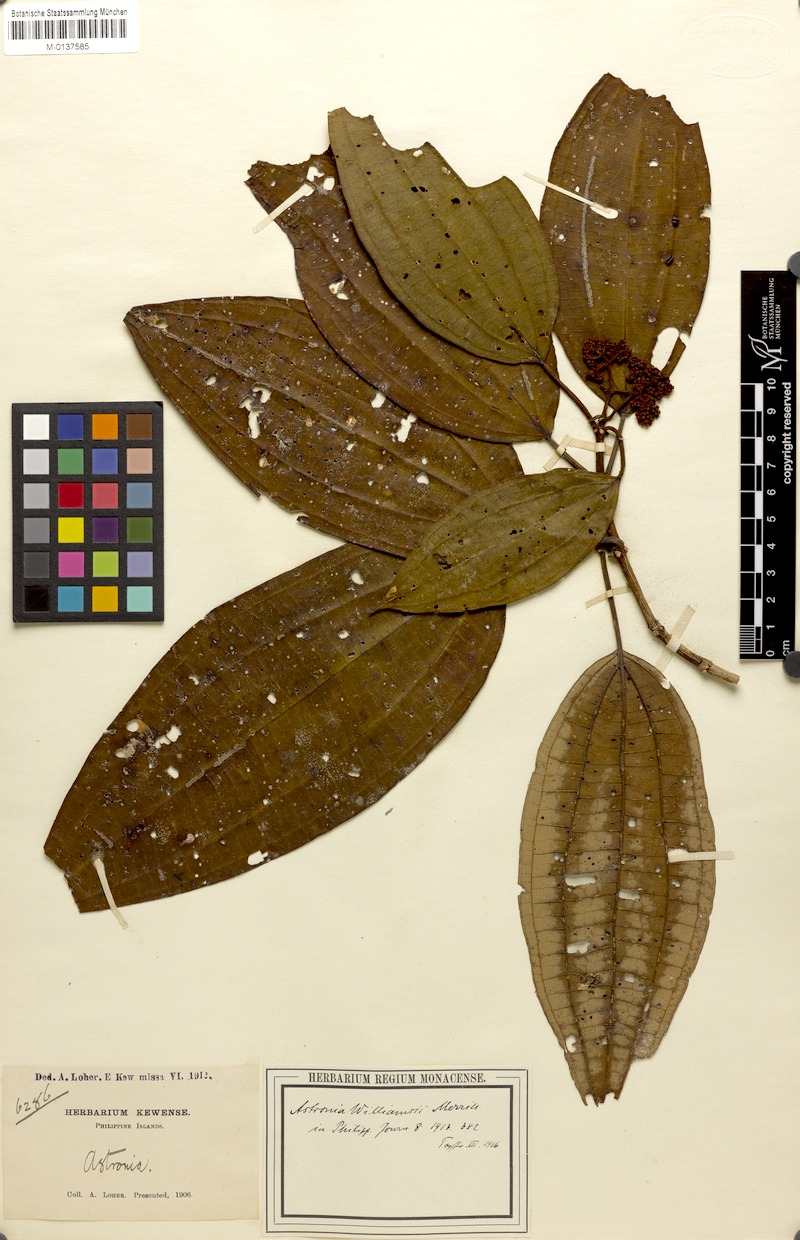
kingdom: Plantae
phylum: Tracheophyta
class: Magnoliopsida
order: Myrtales
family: Melastomataceae
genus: Astronia
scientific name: Astronia williamsii
